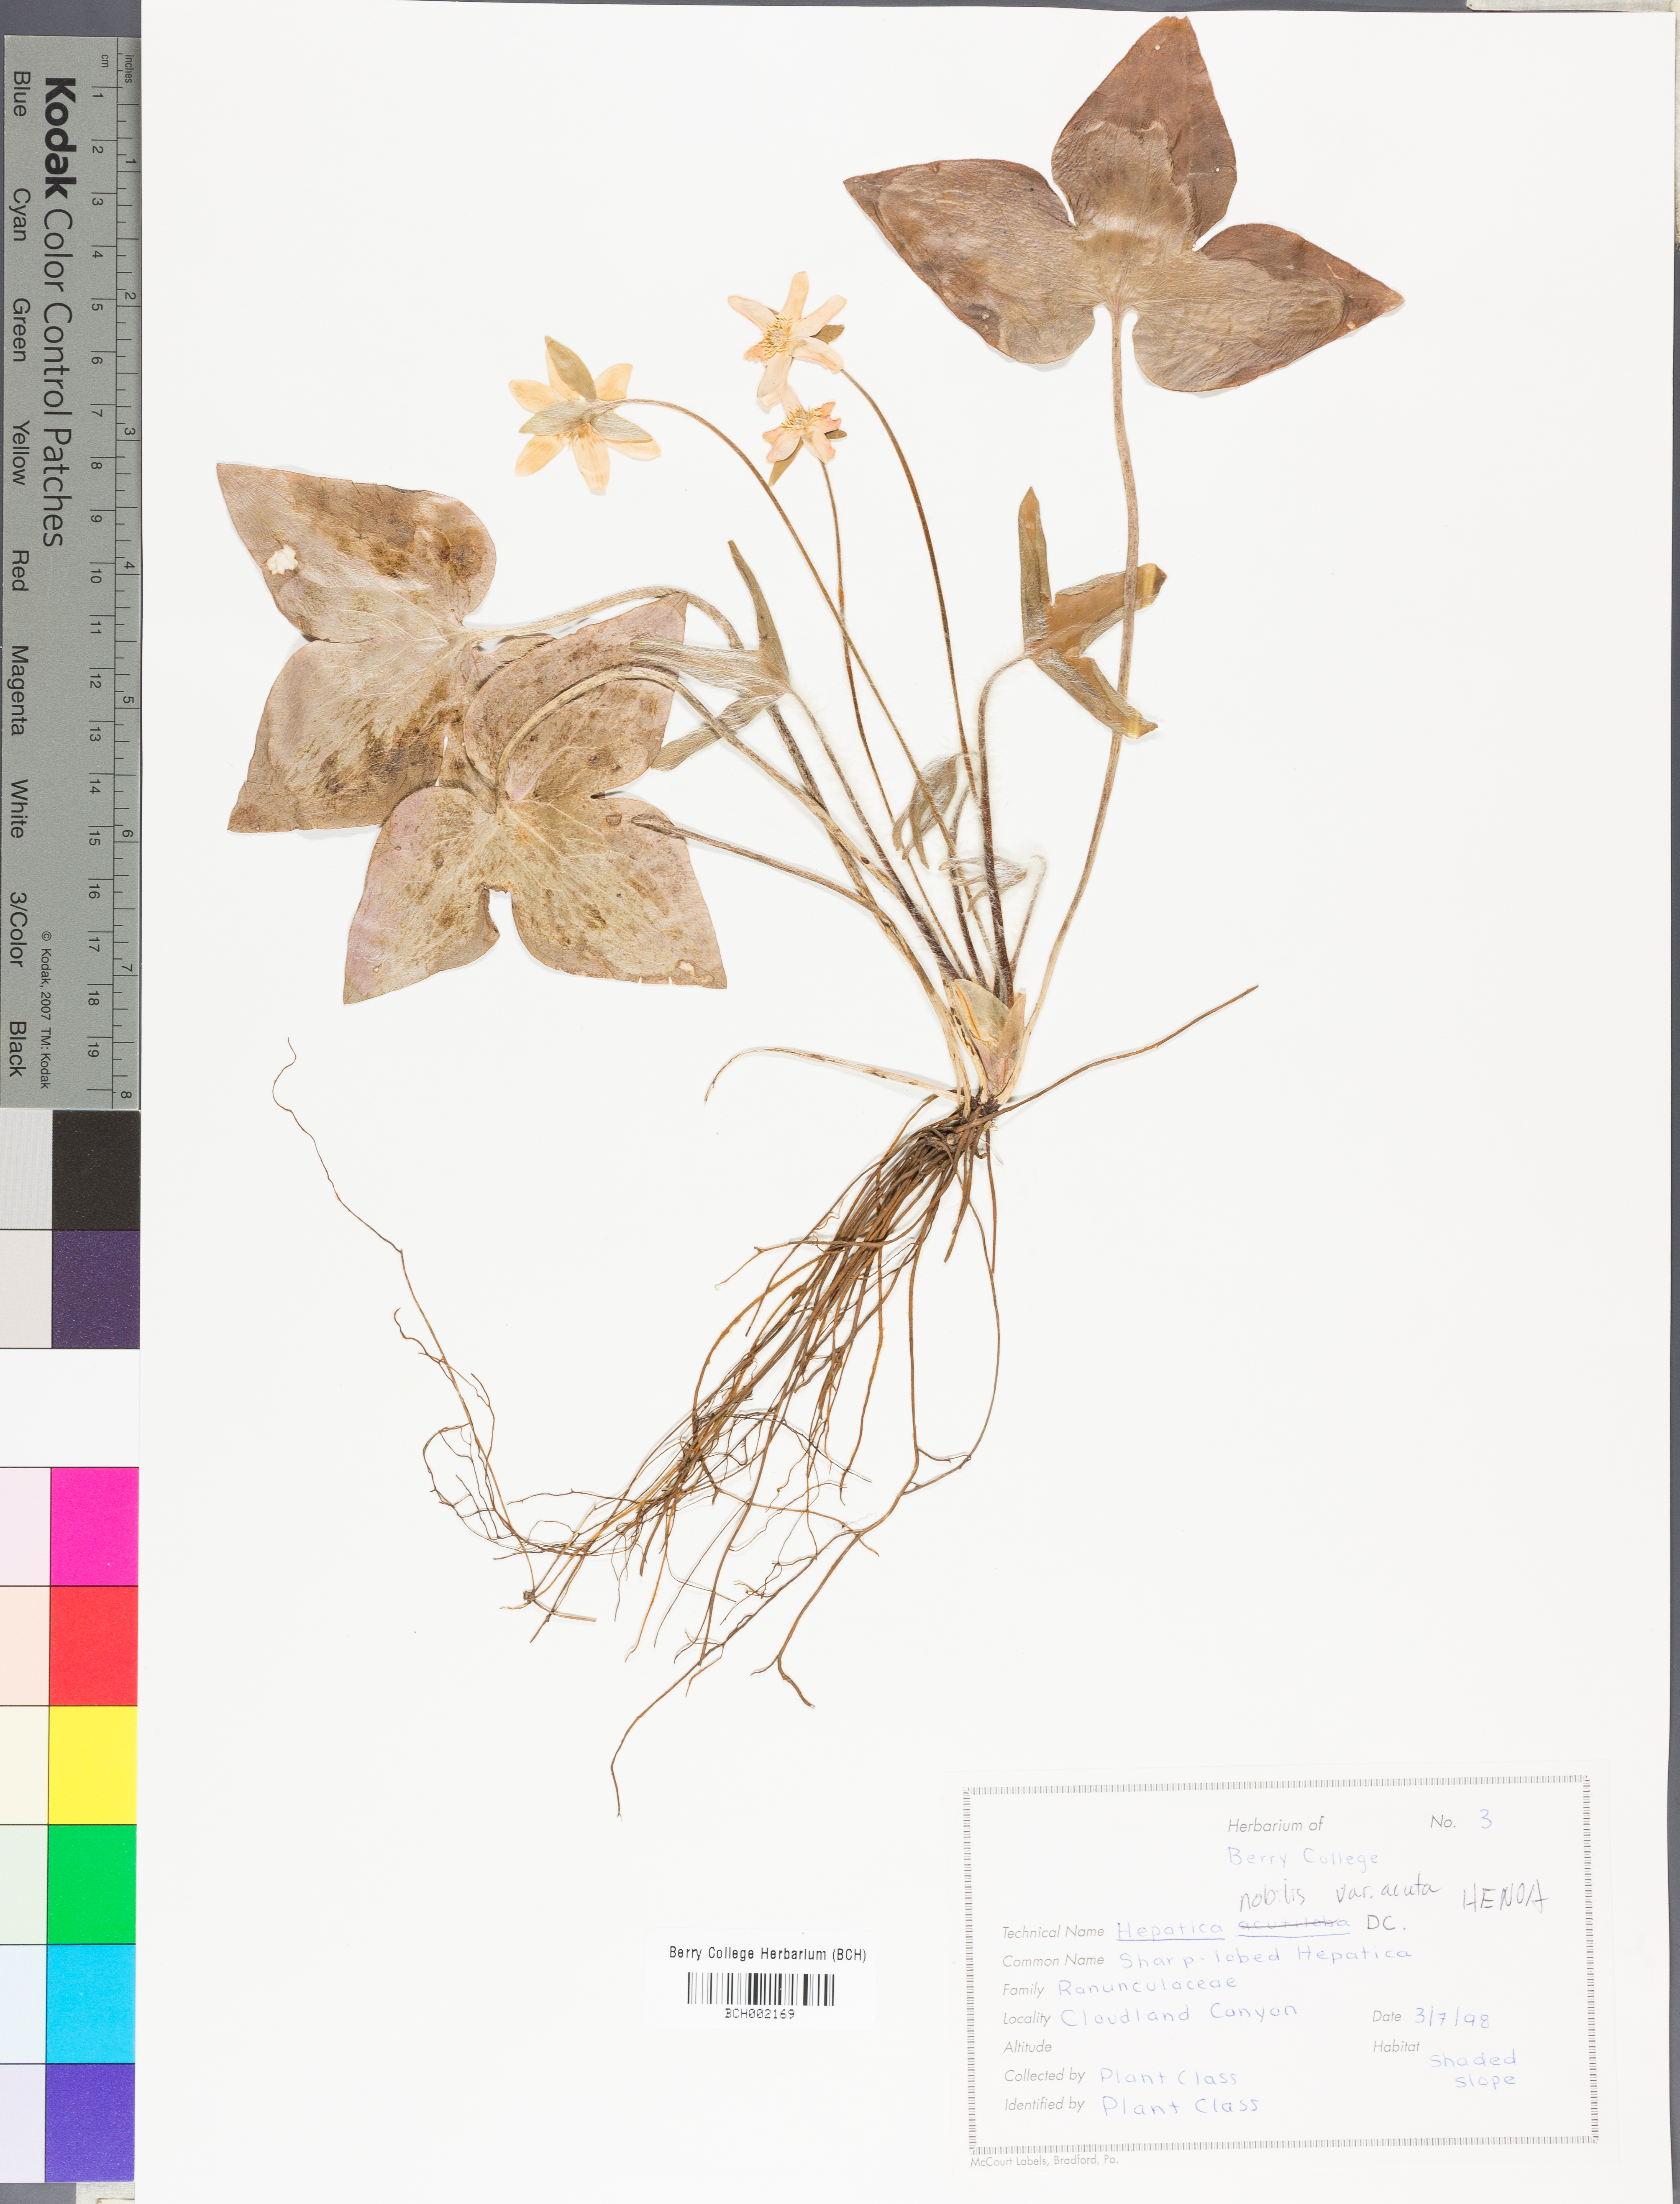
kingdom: Plantae
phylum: Tracheophyta
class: Magnoliopsida
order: Ranunculales
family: Ranunculaceae
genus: Hepatica
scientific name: Hepatica acutiloba
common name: Sharp-lobed hepatica
